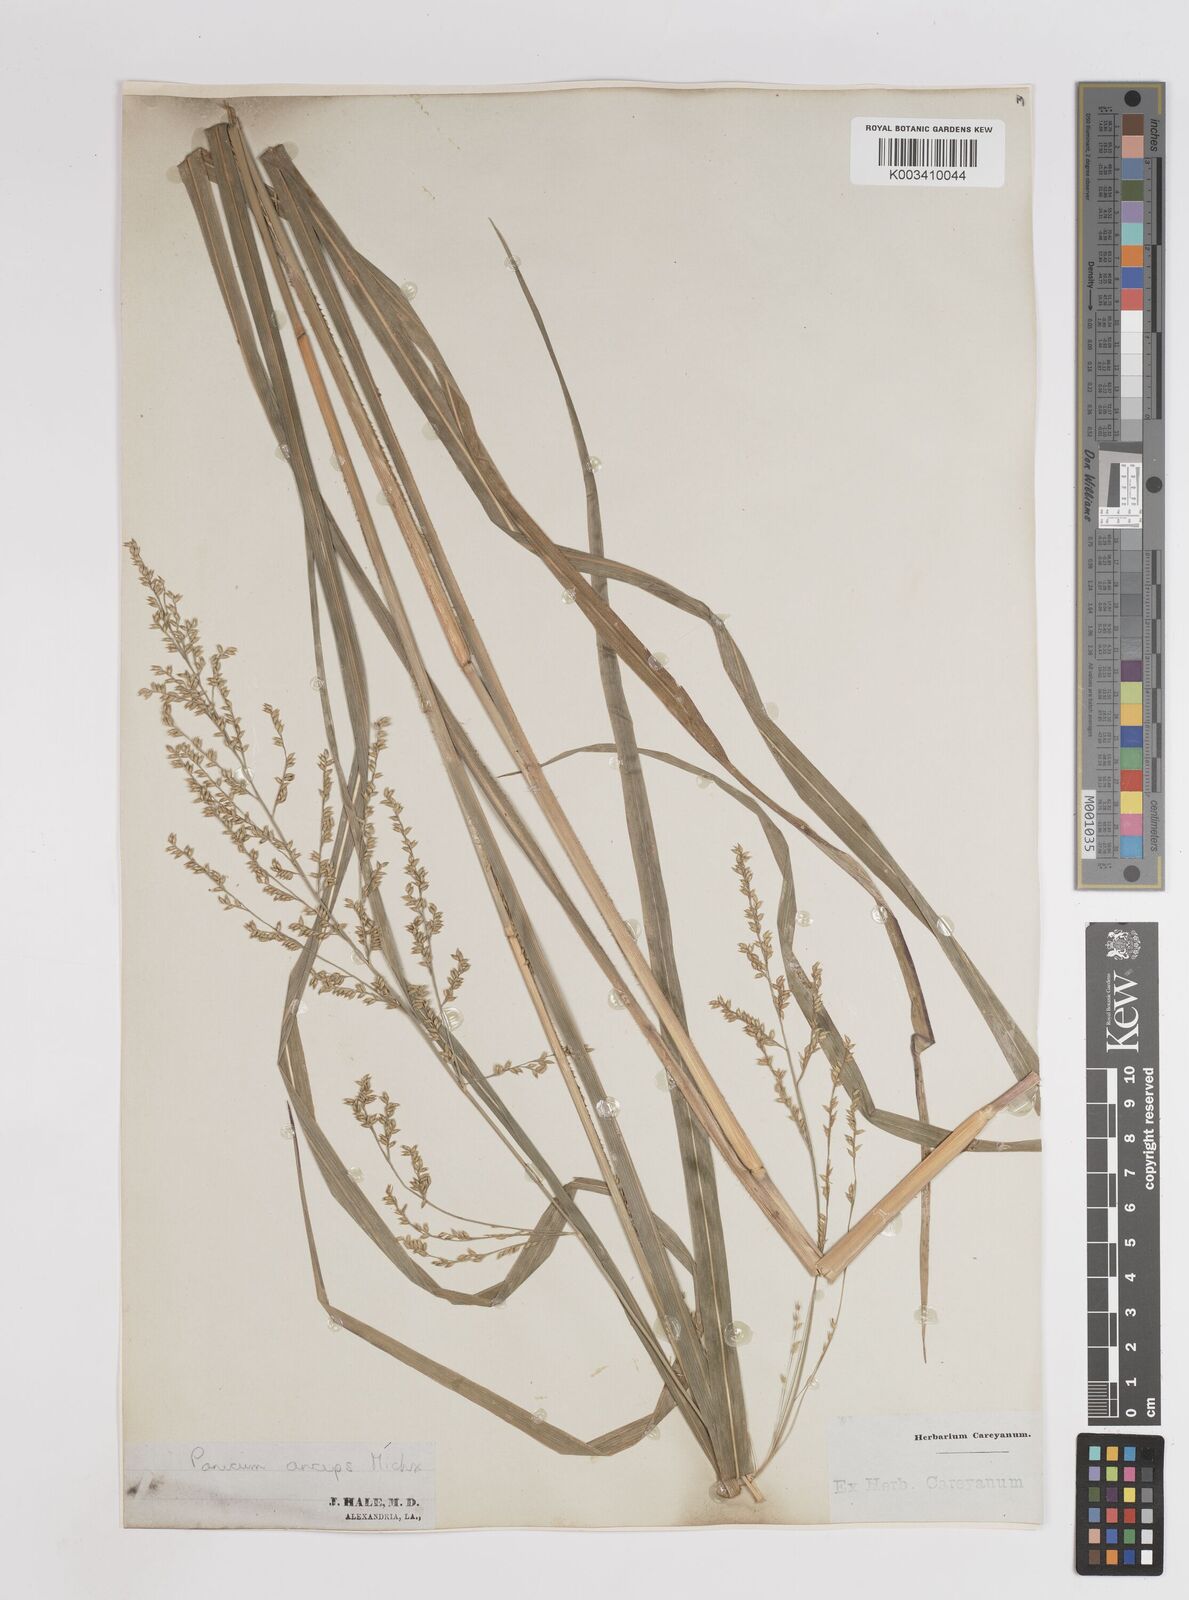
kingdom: Plantae
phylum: Tracheophyta
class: Liliopsida
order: Poales
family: Poaceae
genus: Coleataenia
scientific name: Coleataenia anceps
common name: Beaked panic grass
